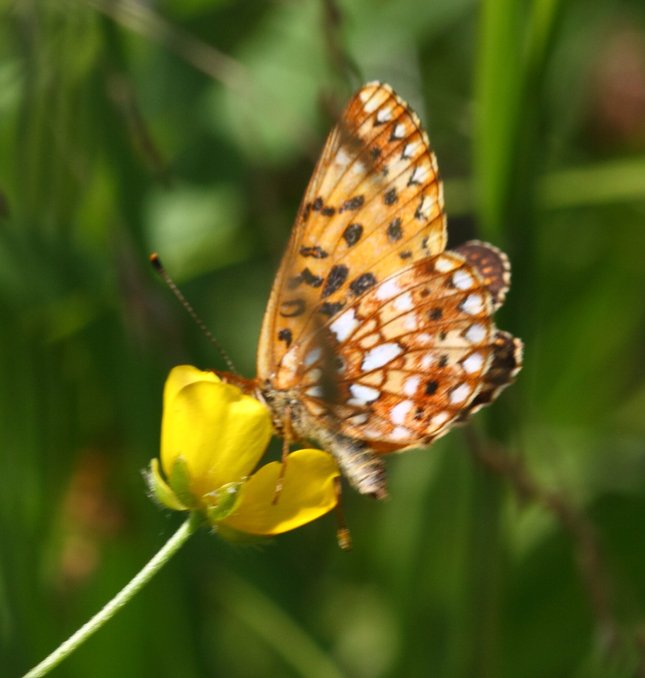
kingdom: Animalia
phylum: Arthropoda
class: Insecta
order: Lepidoptera
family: Nymphalidae
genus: Boloria
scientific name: Boloria selene
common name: Silver-bordered Fritillary
